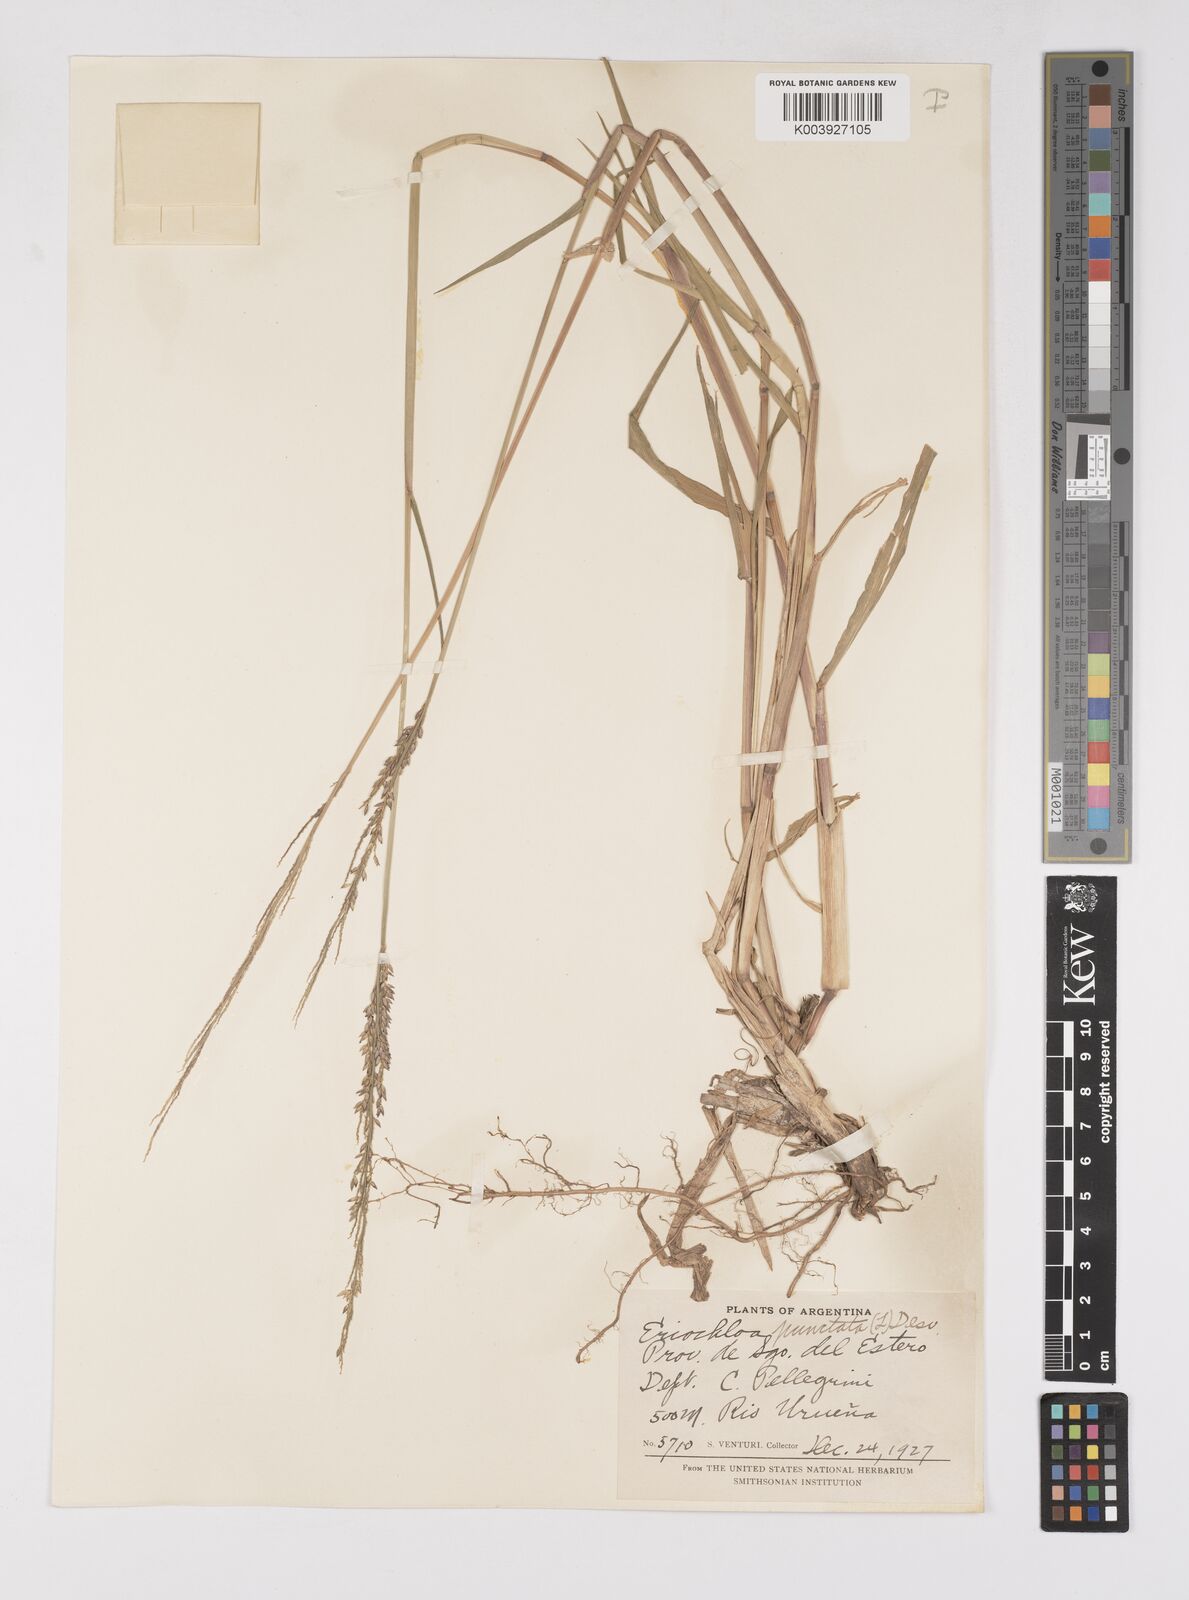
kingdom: Plantae
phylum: Tracheophyta
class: Liliopsida
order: Poales
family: Poaceae
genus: Eriochloa
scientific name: Eriochloa punctata
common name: Louisiana cupgrass
